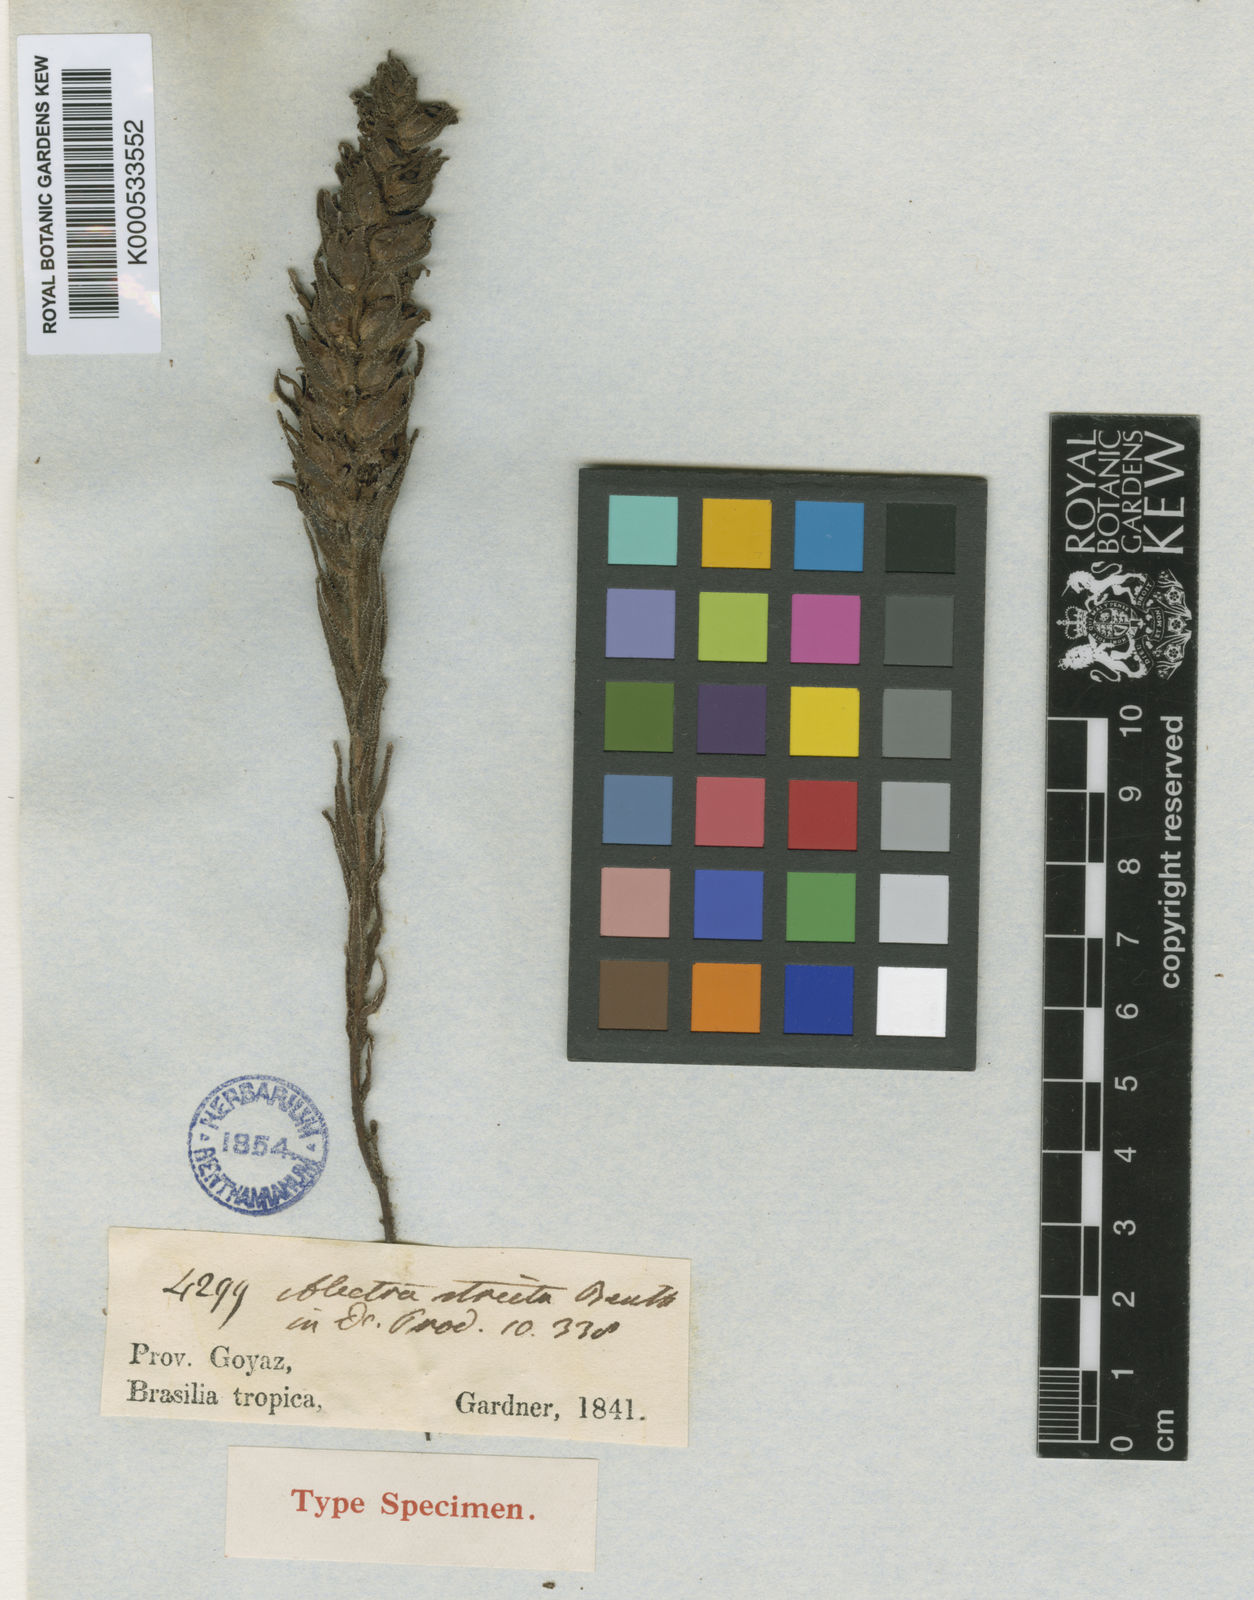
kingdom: Plantae
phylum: Tracheophyta
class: Magnoliopsida
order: Lamiales
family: Orobanchaceae
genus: Melasma
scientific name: Melasma strictum
